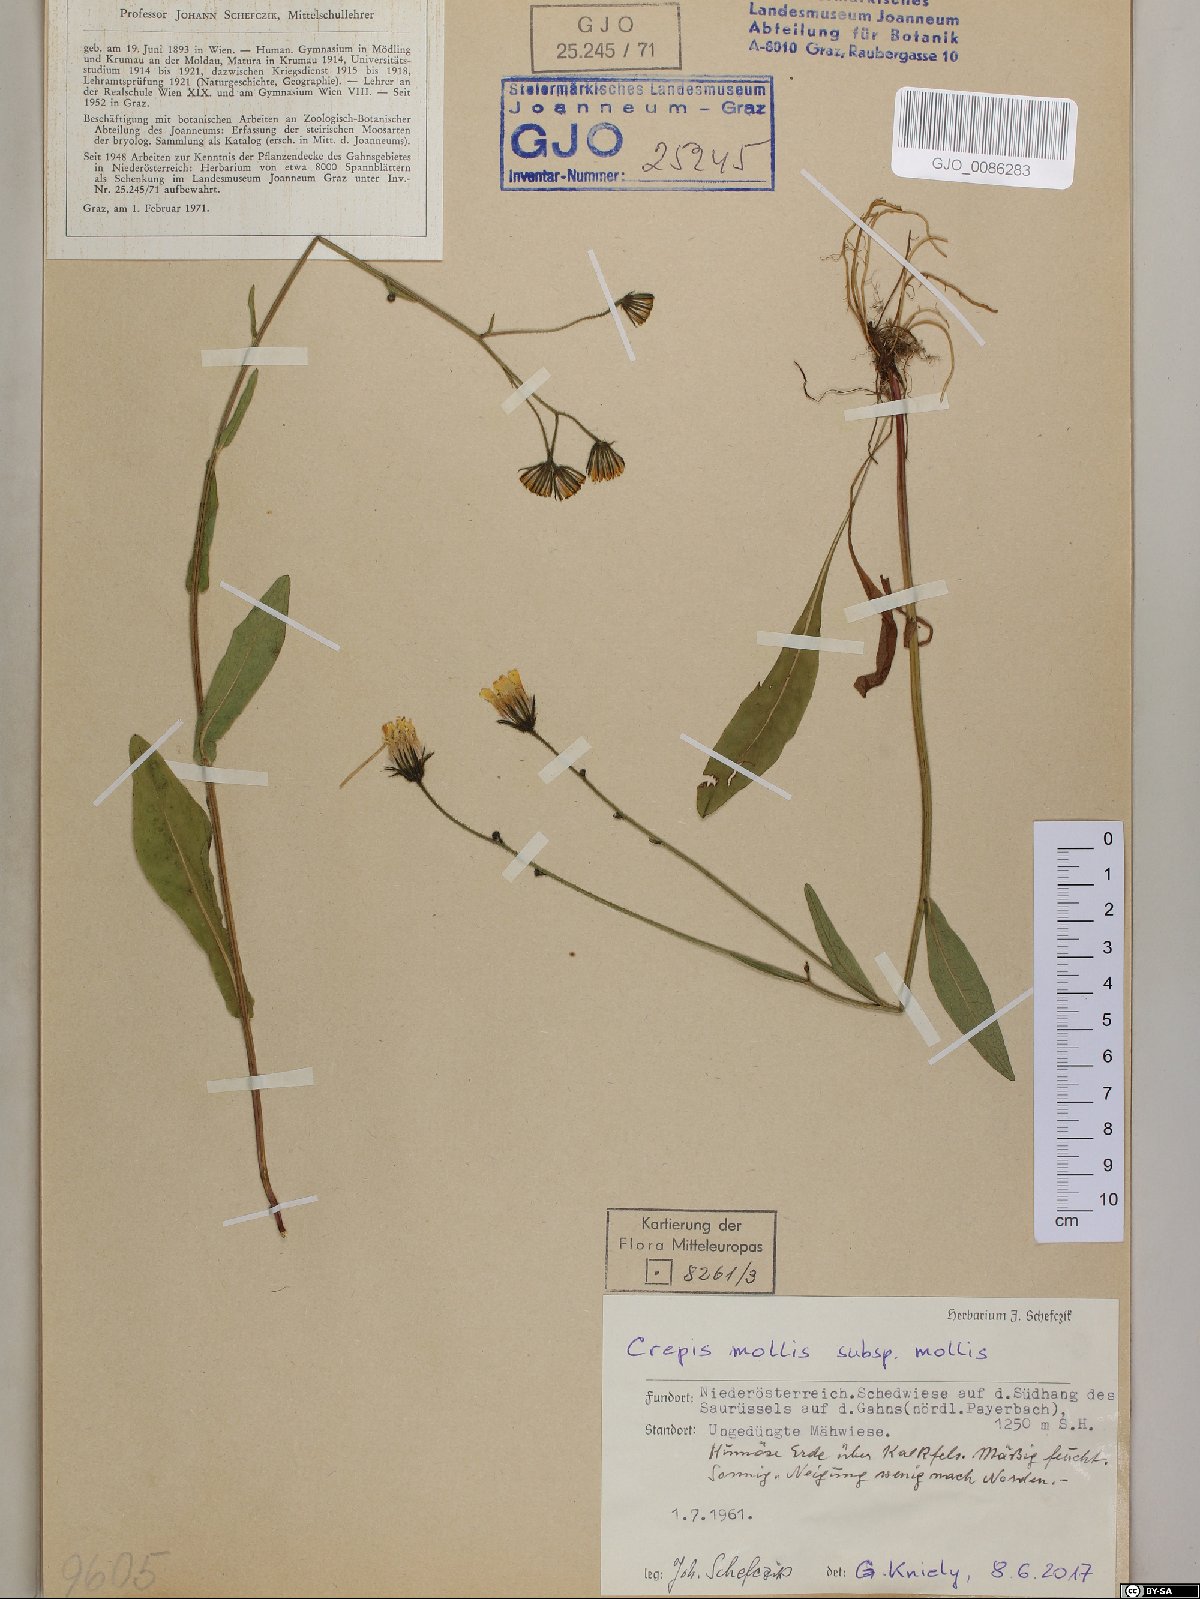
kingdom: Plantae
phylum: Tracheophyta
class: Magnoliopsida
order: Asterales
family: Asteraceae
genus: Crepis
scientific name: Crepis mollis
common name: Northern hawk's-beard
